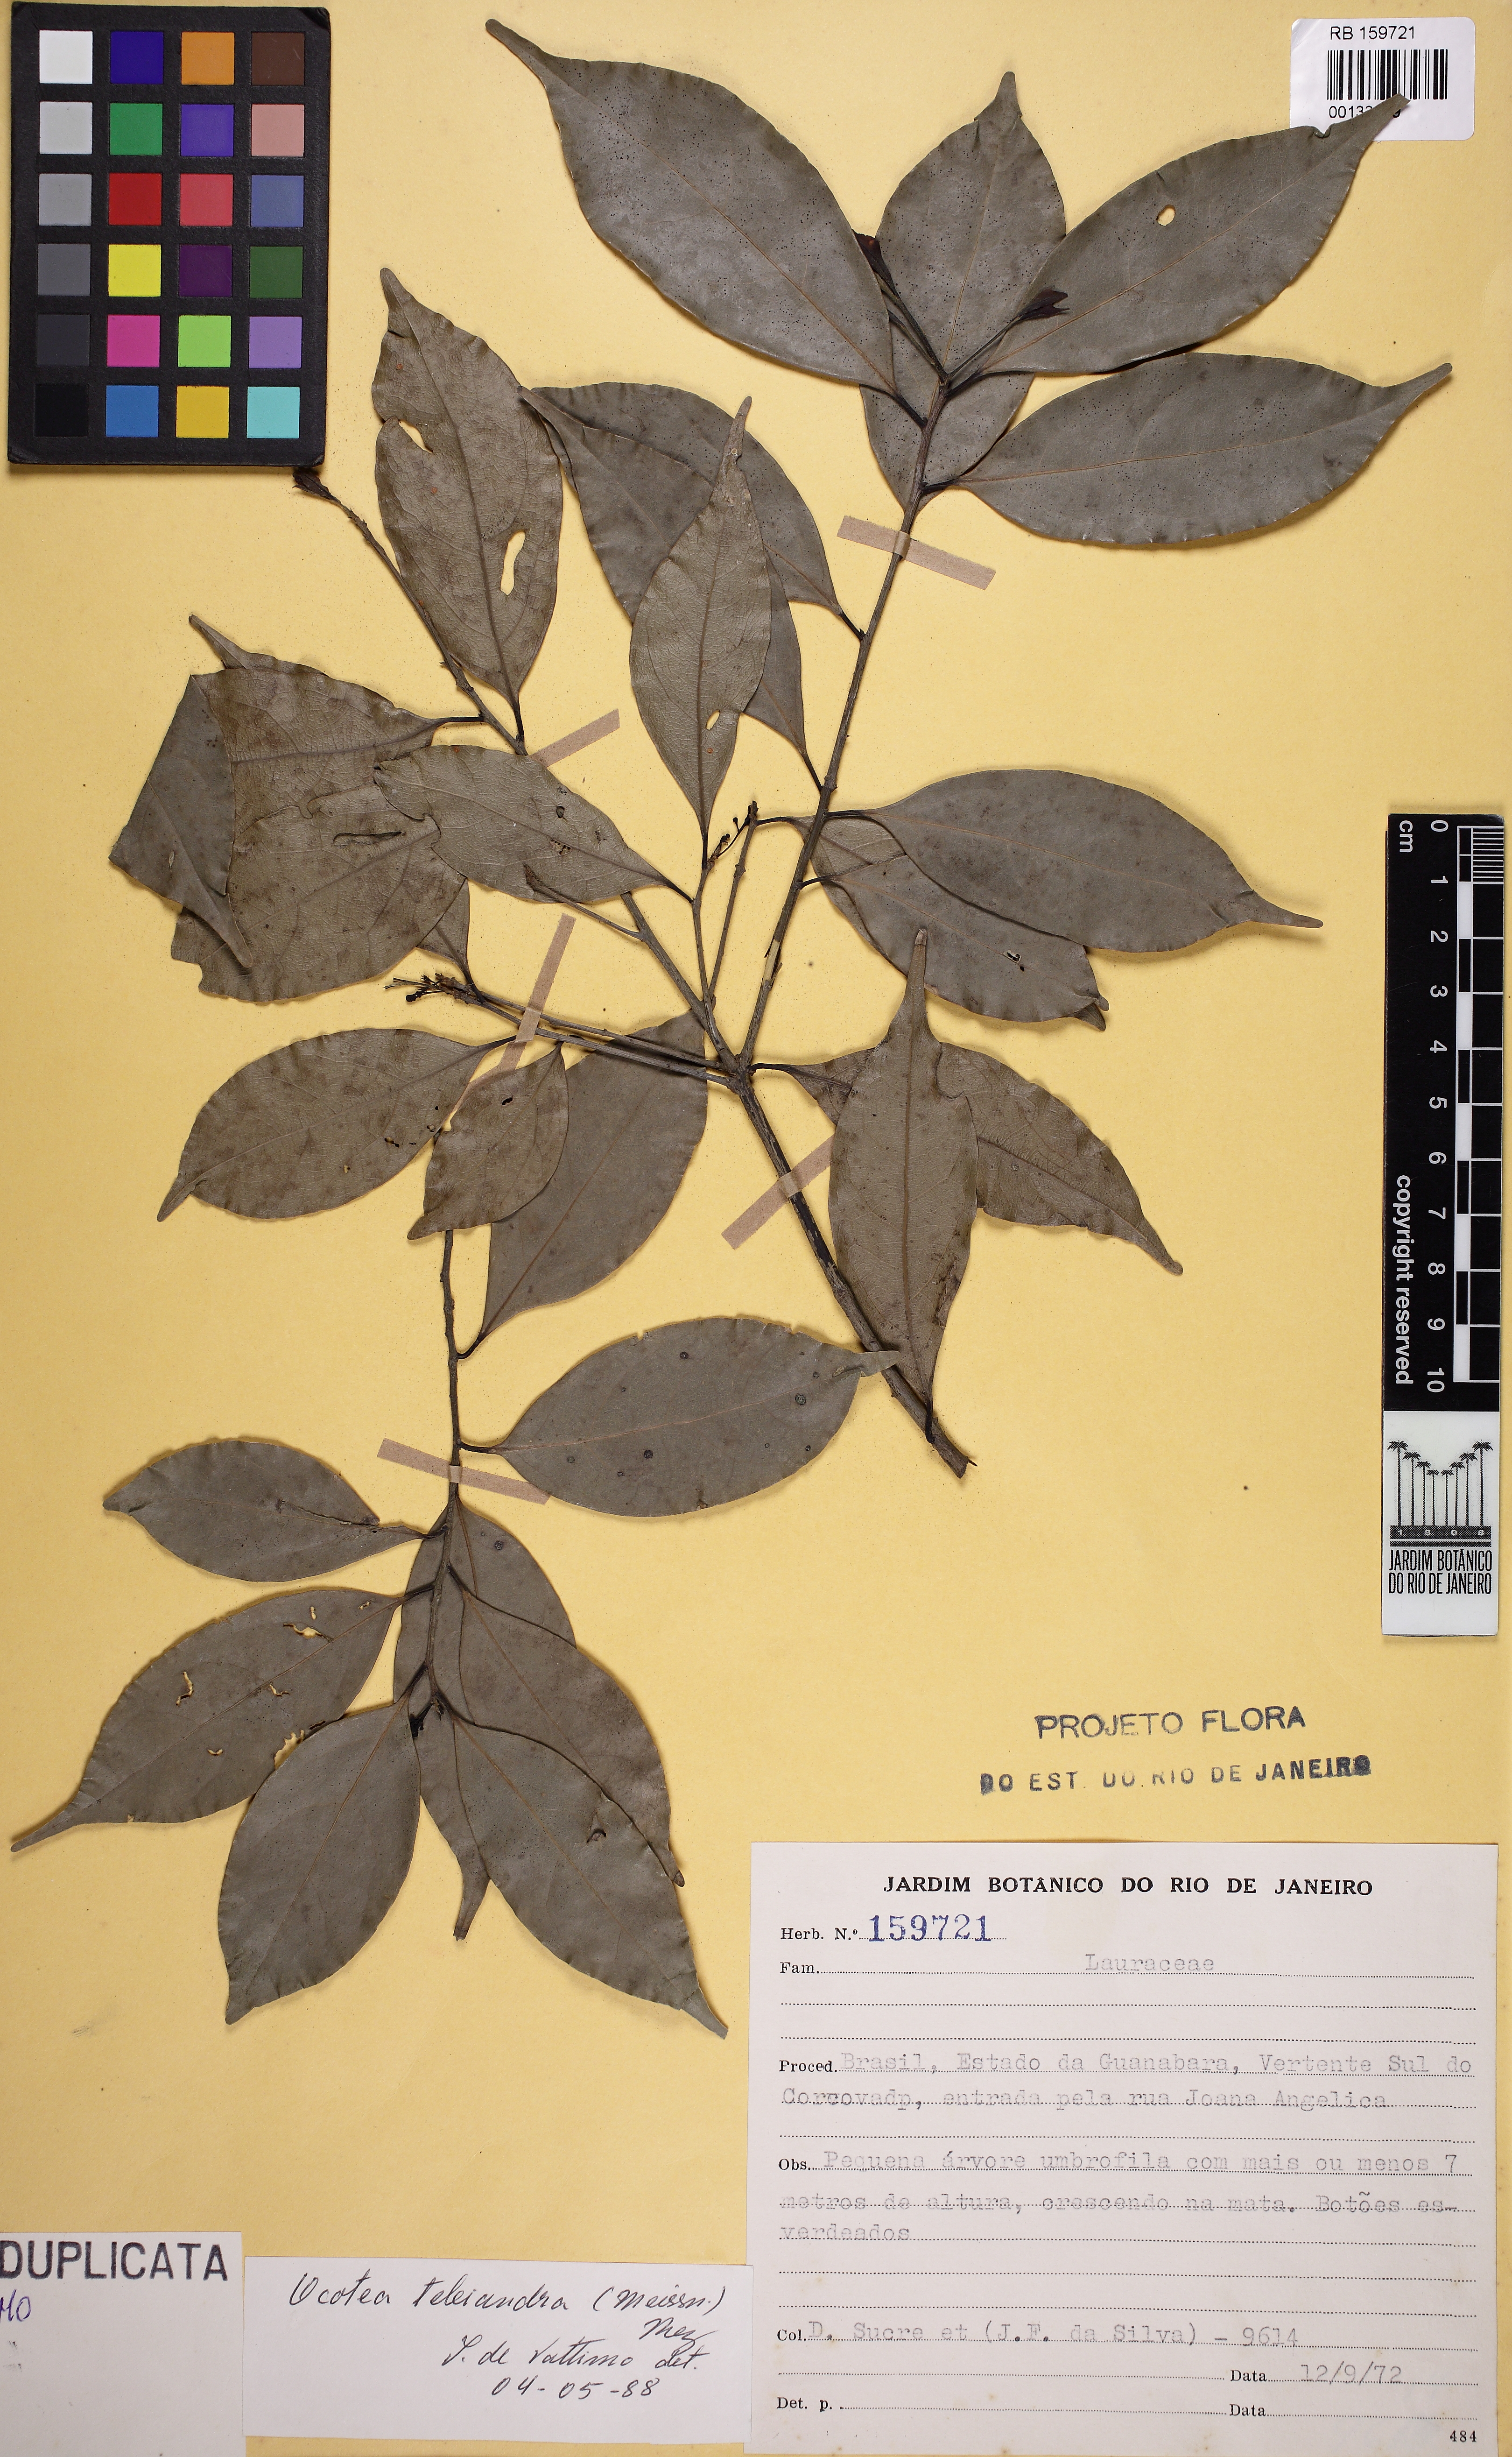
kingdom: Plantae
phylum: Tracheophyta
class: Magnoliopsida
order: Laurales
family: Lauraceae
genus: Ocotea
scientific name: Ocotea teleiandra
